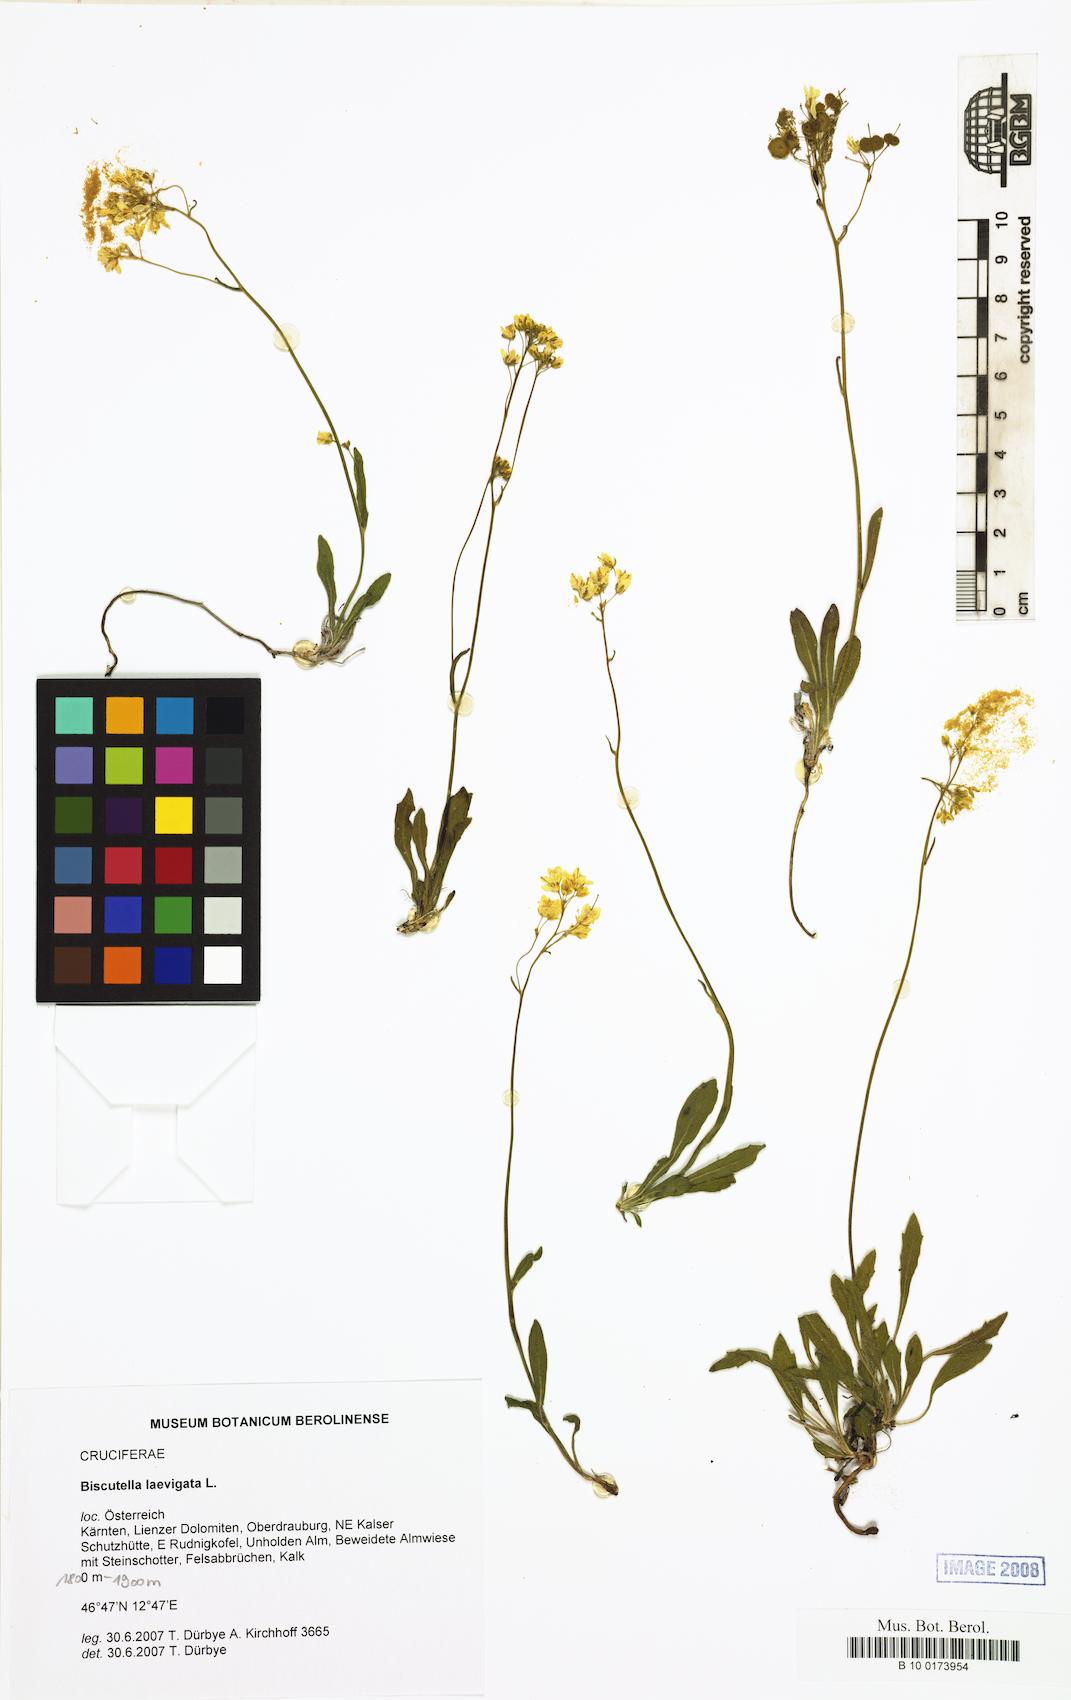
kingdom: Plantae
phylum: Tracheophyta
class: Magnoliopsida
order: Brassicales
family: Brassicaceae
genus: Biscutella
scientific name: Biscutella laevigata
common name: Buckler mustard
